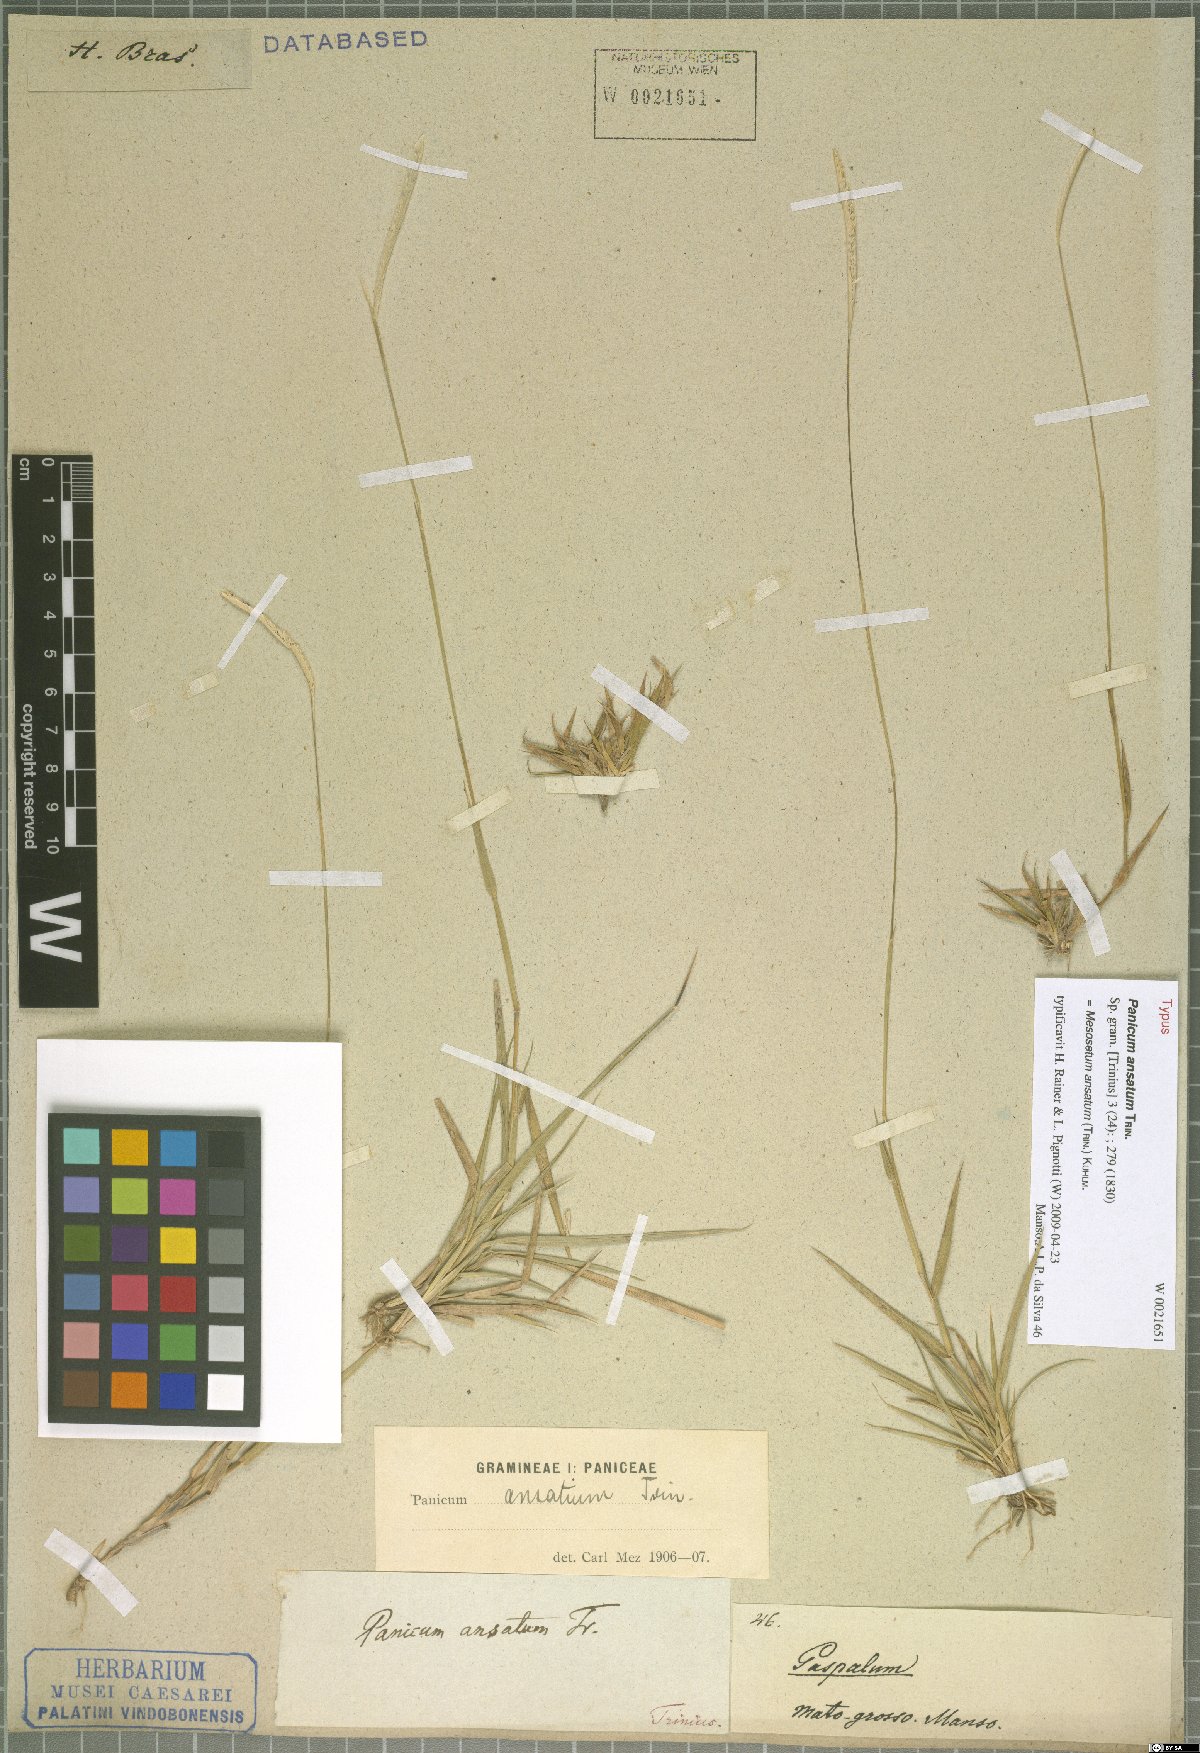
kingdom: Plantae
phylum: Tracheophyta
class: Liliopsida
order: Poales
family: Poaceae
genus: Mesosetum
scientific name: Mesosetum ansatum
